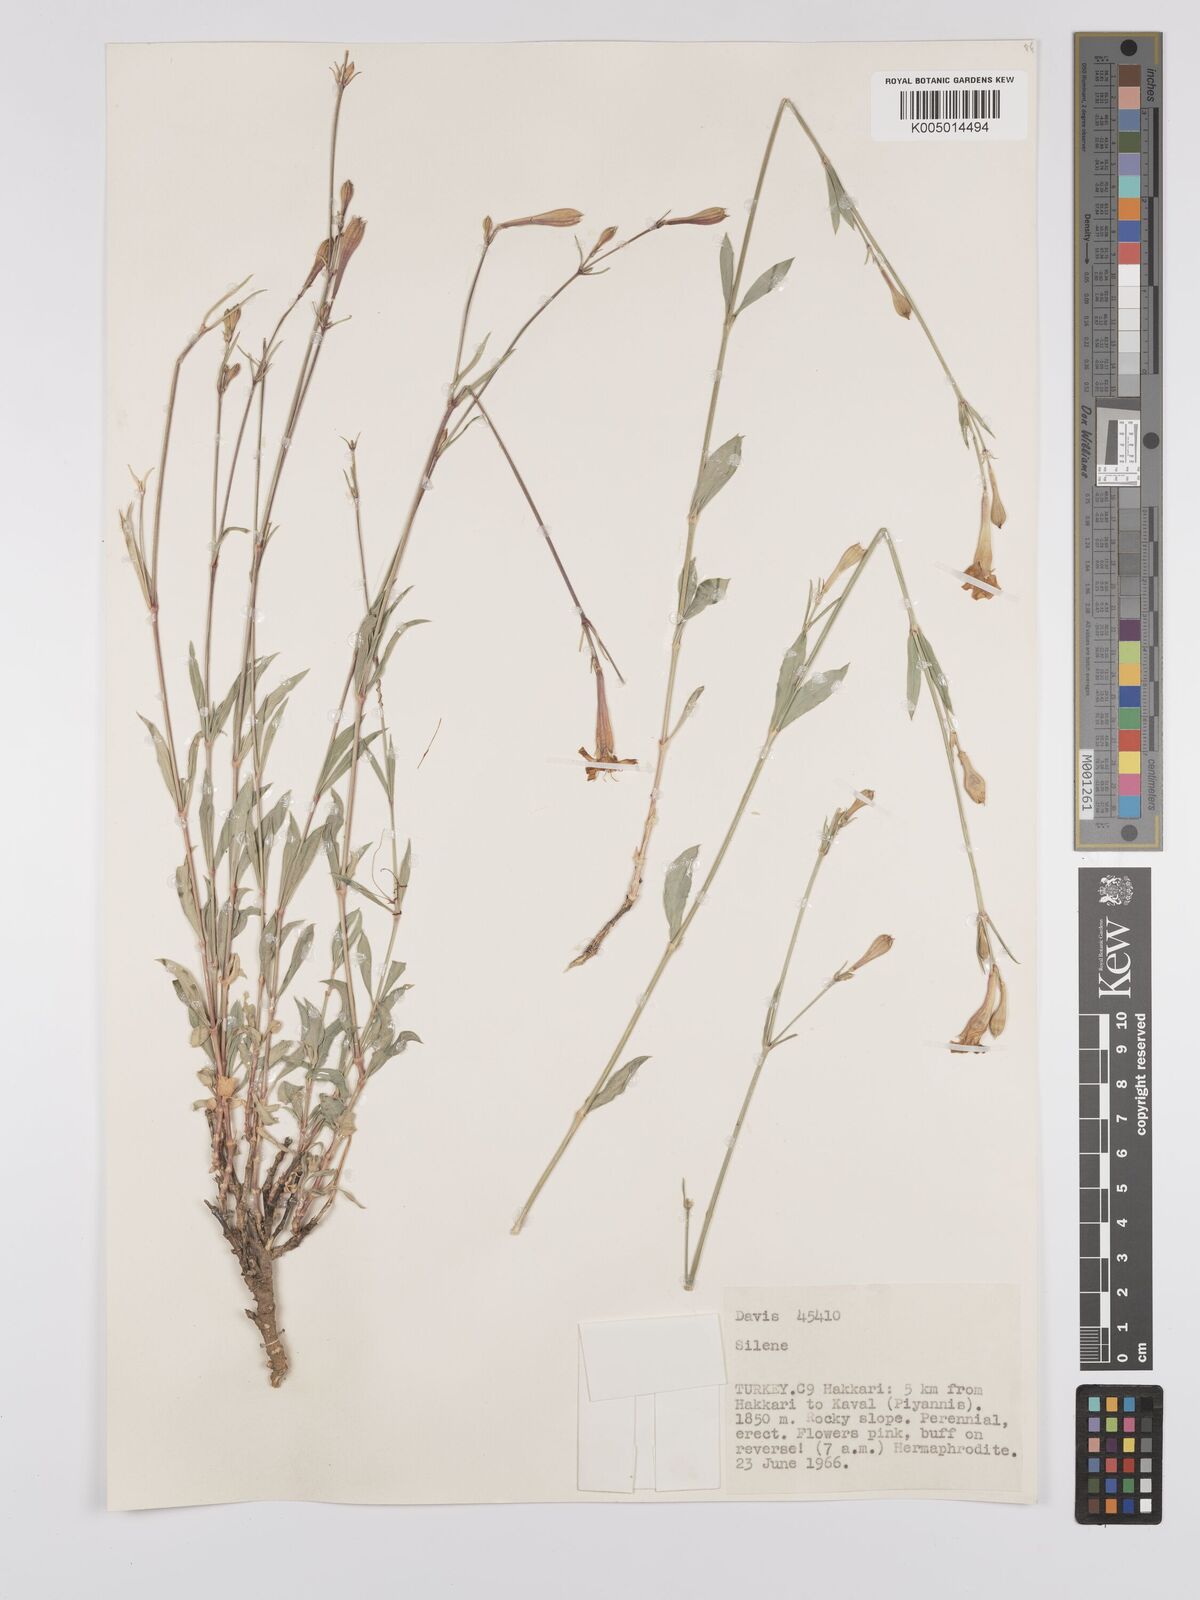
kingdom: Plantae
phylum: Tracheophyta
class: Magnoliopsida
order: Caryophyllales
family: Caryophyllaceae
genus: Silene
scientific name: Silene
